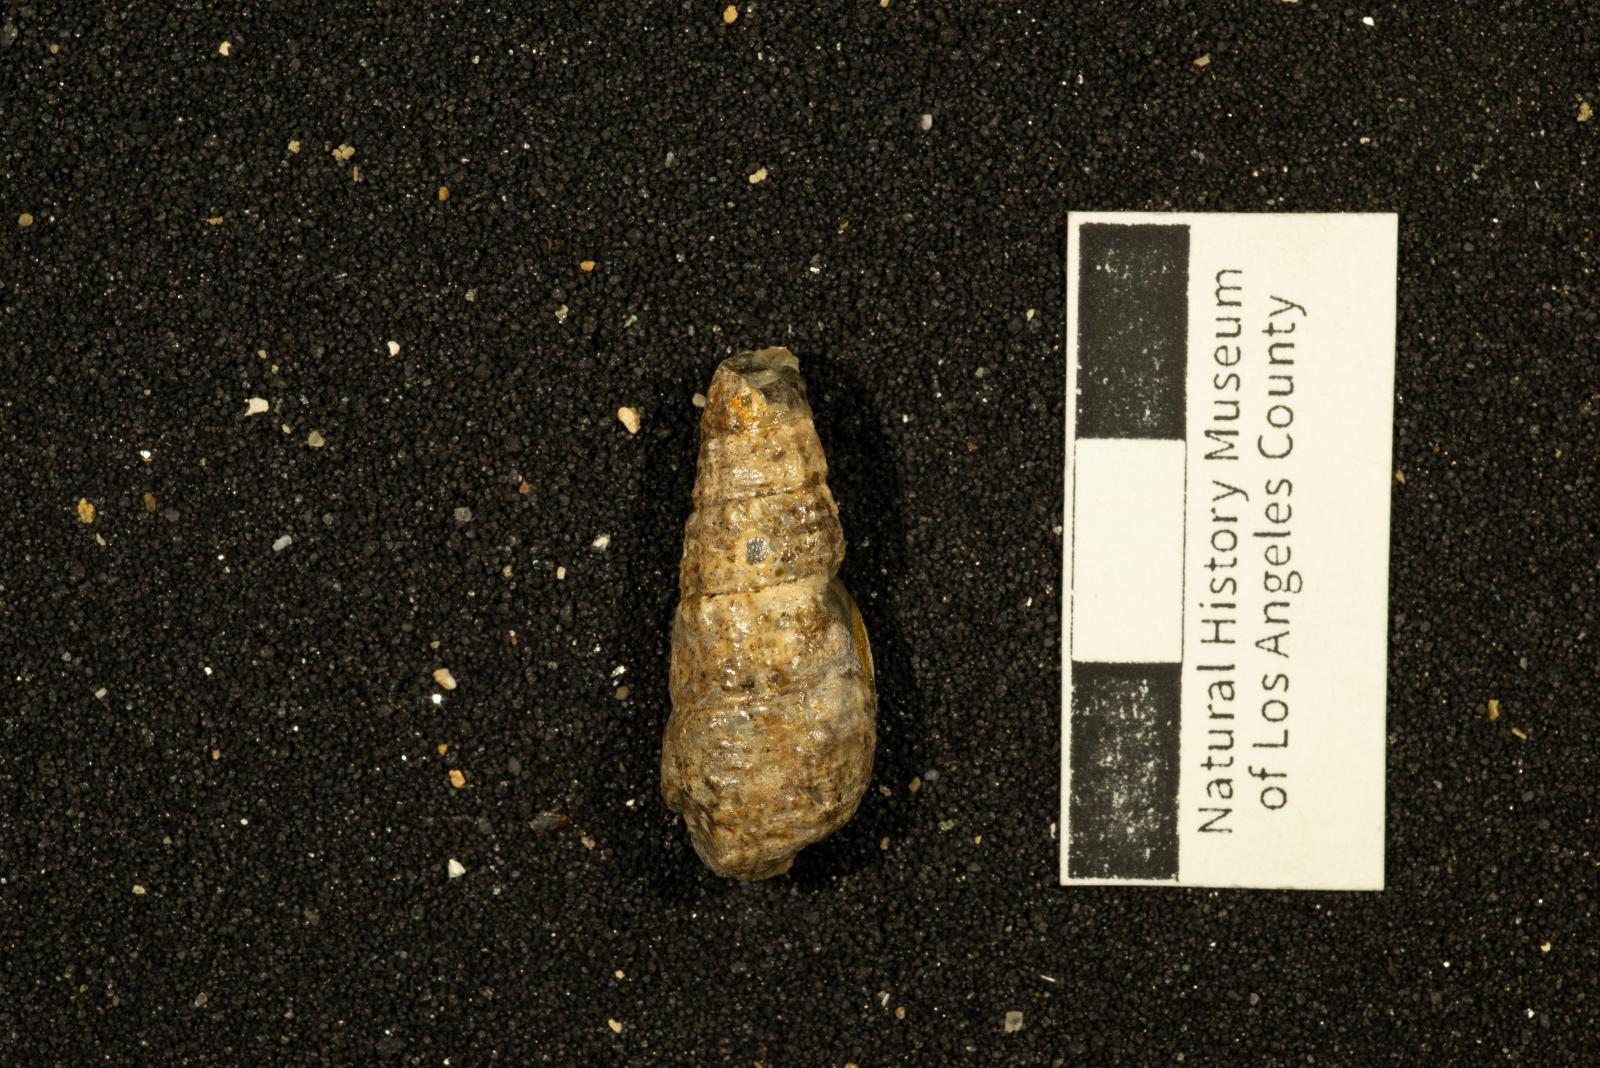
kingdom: Animalia
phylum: Mollusca
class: Gastropoda
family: Potamididae
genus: Tympanotonos
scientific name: Tympanotonos
